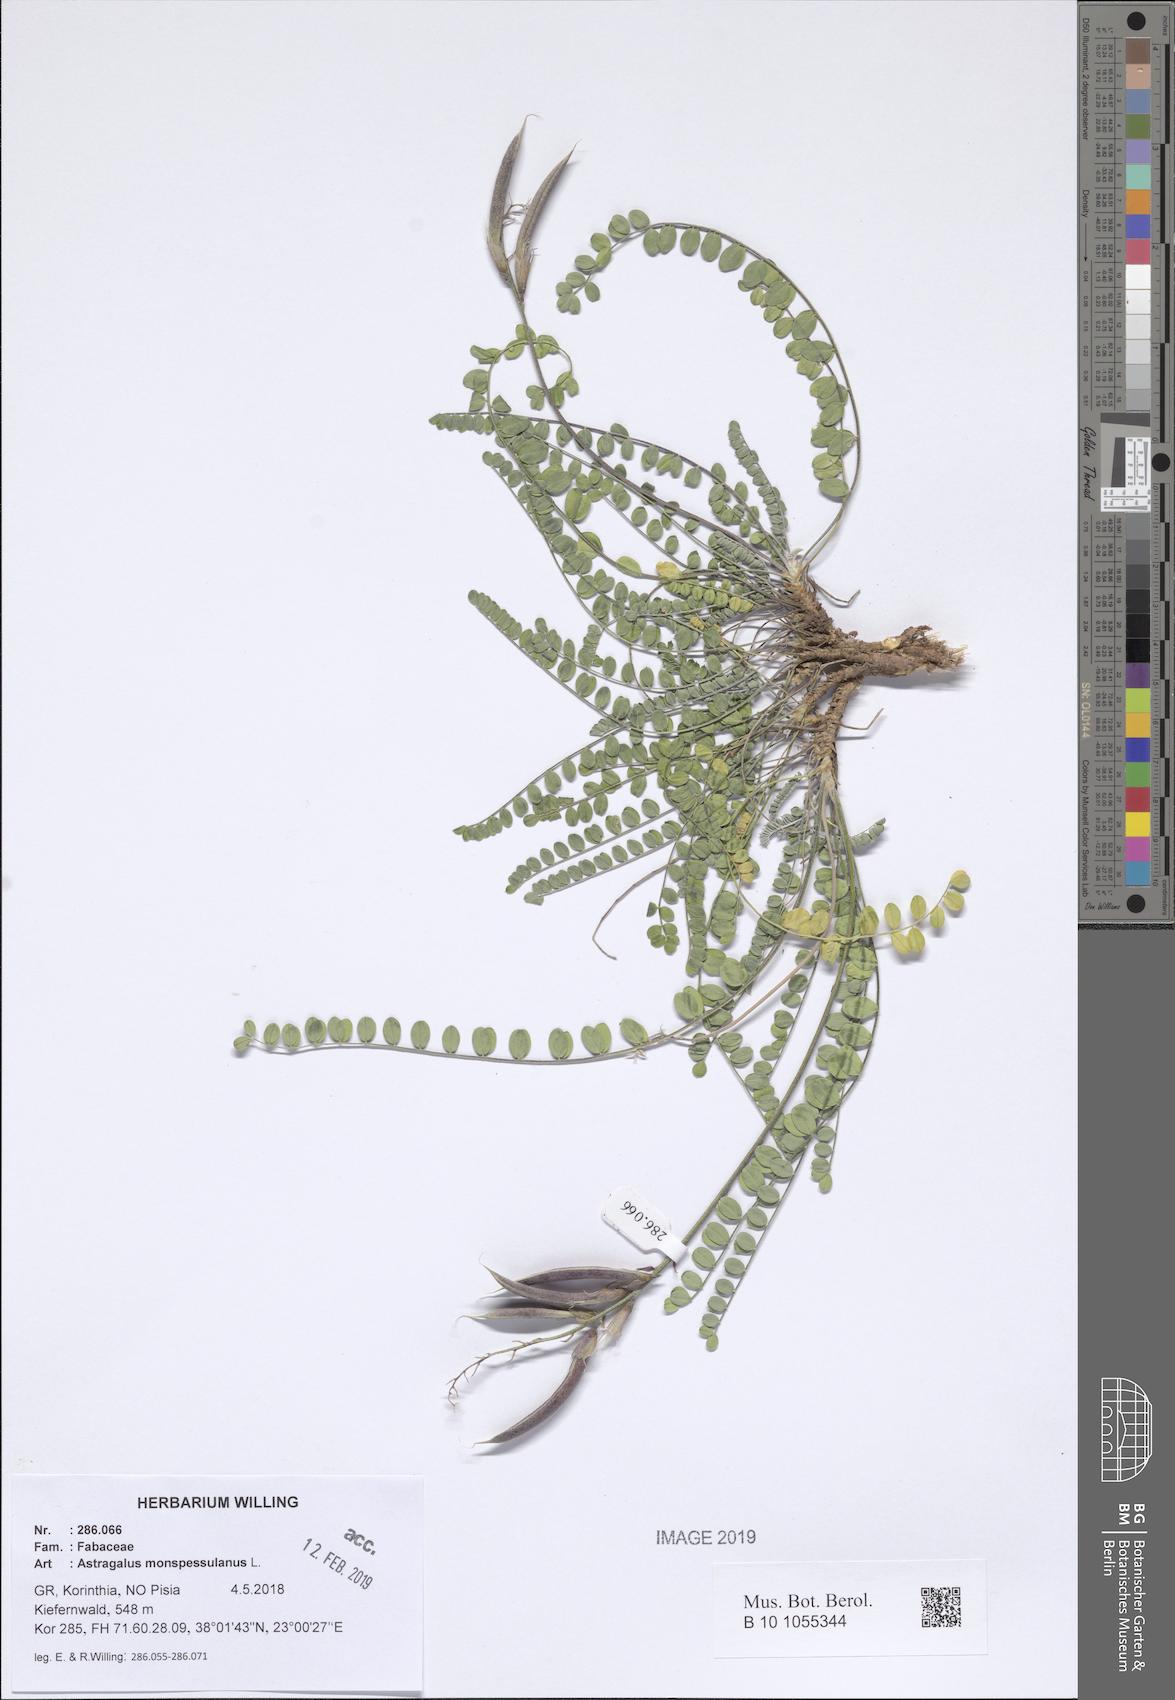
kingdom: Plantae
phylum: Tracheophyta
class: Magnoliopsida
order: Fabales
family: Fabaceae
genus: Astragalus
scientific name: Astragalus monspessulanus
